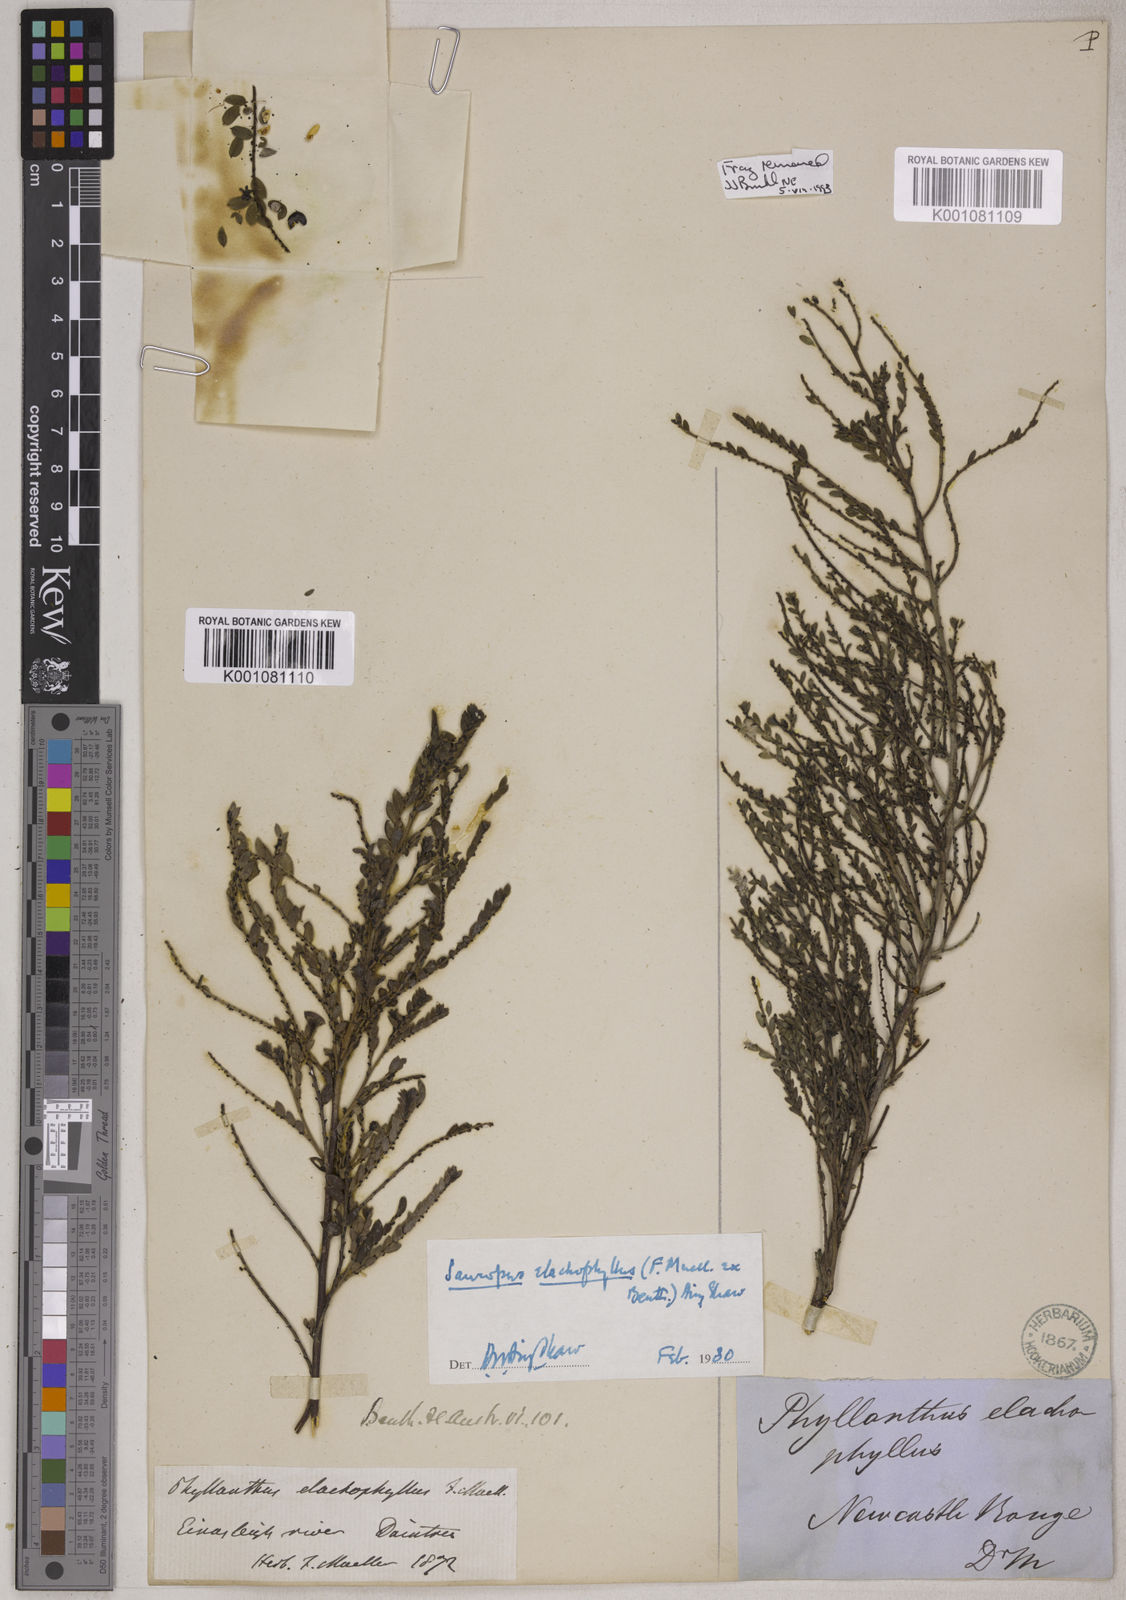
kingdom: Plantae
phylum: Tracheophyta
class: Magnoliopsida
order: Malpighiales
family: Phyllanthaceae
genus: Synostemon
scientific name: Synostemon elachophyllus
